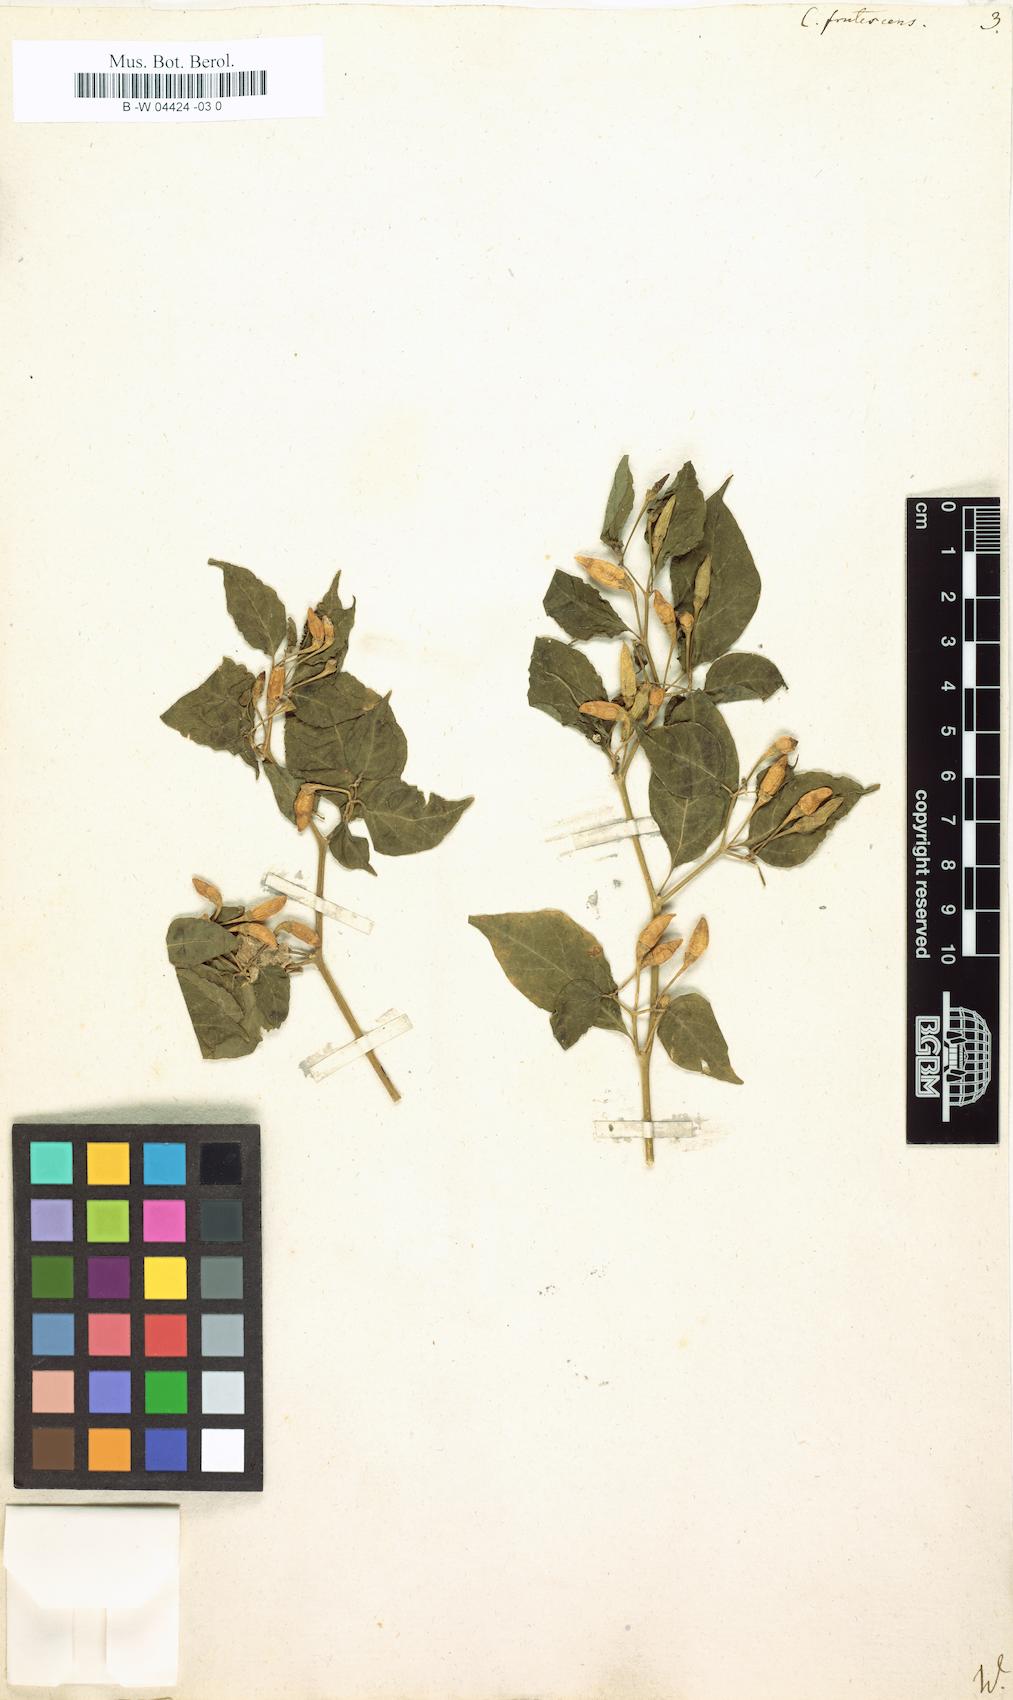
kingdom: Plantae
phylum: Tracheophyta
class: Magnoliopsida
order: Solanales
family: Solanaceae
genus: Capsicum
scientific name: Capsicum frutescens
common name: Bird pepper
